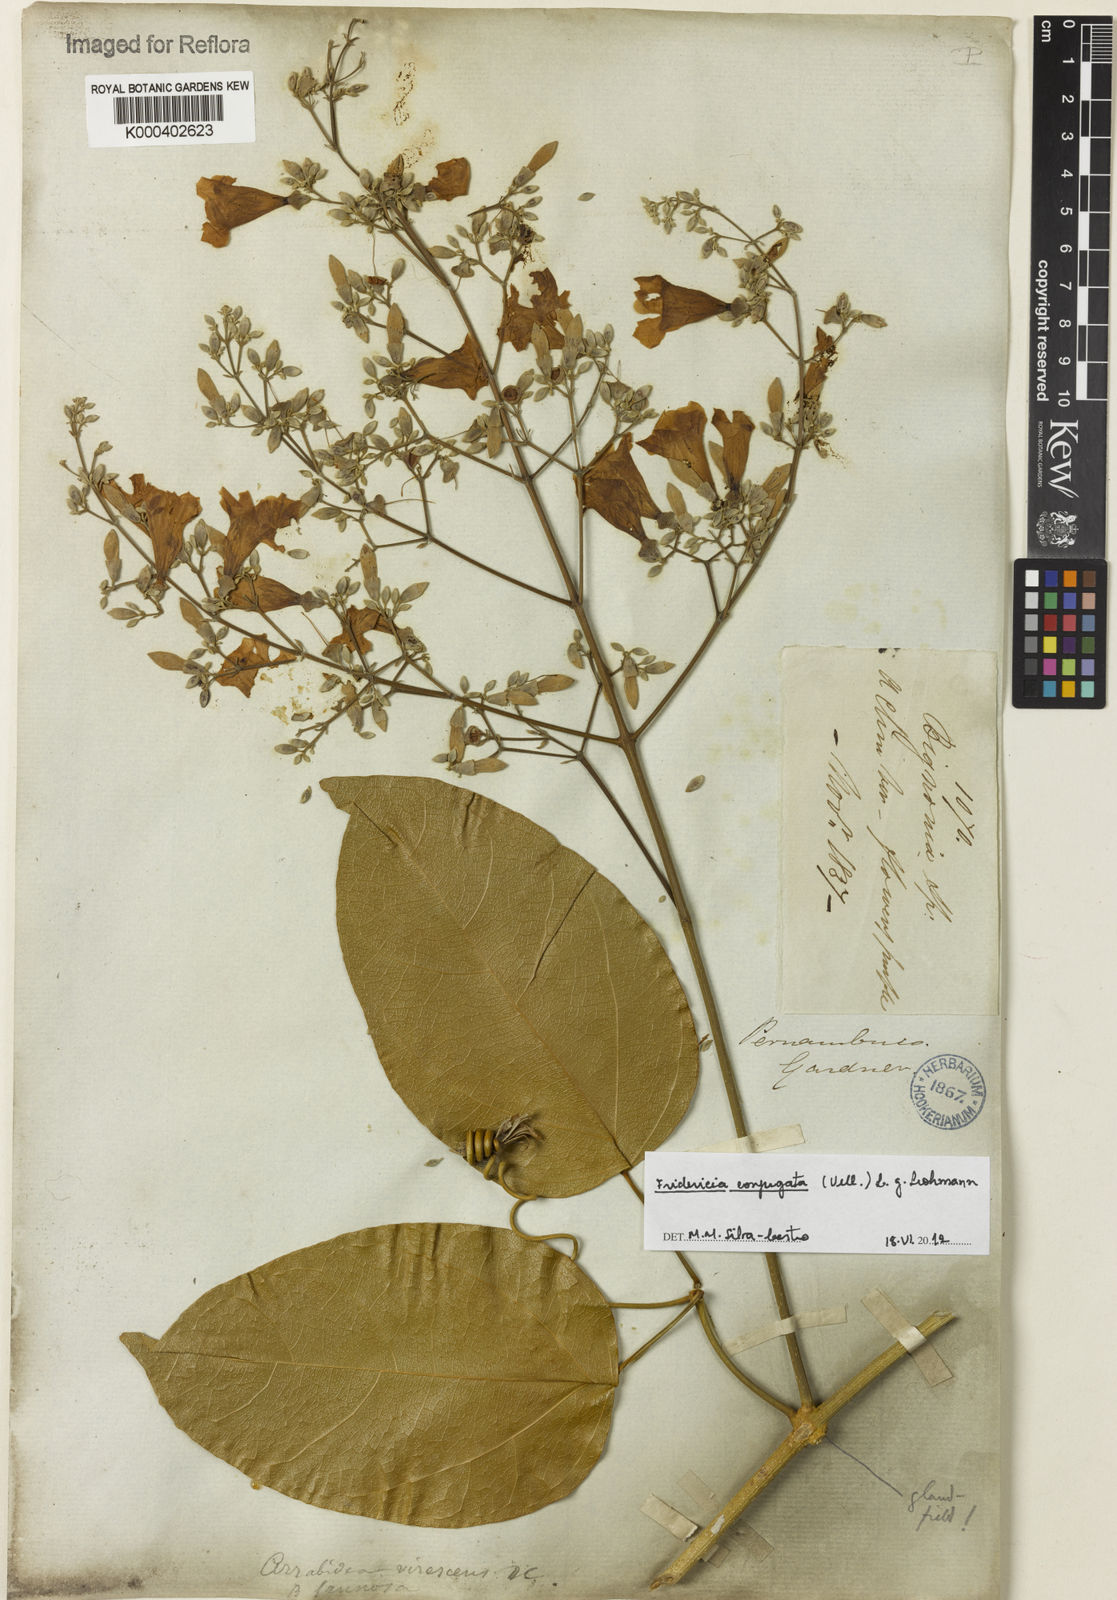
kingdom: Plantae
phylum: Tracheophyta
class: Magnoliopsida
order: Lamiales
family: Bignoniaceae
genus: Fridericia
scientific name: Fridericia conjugata
